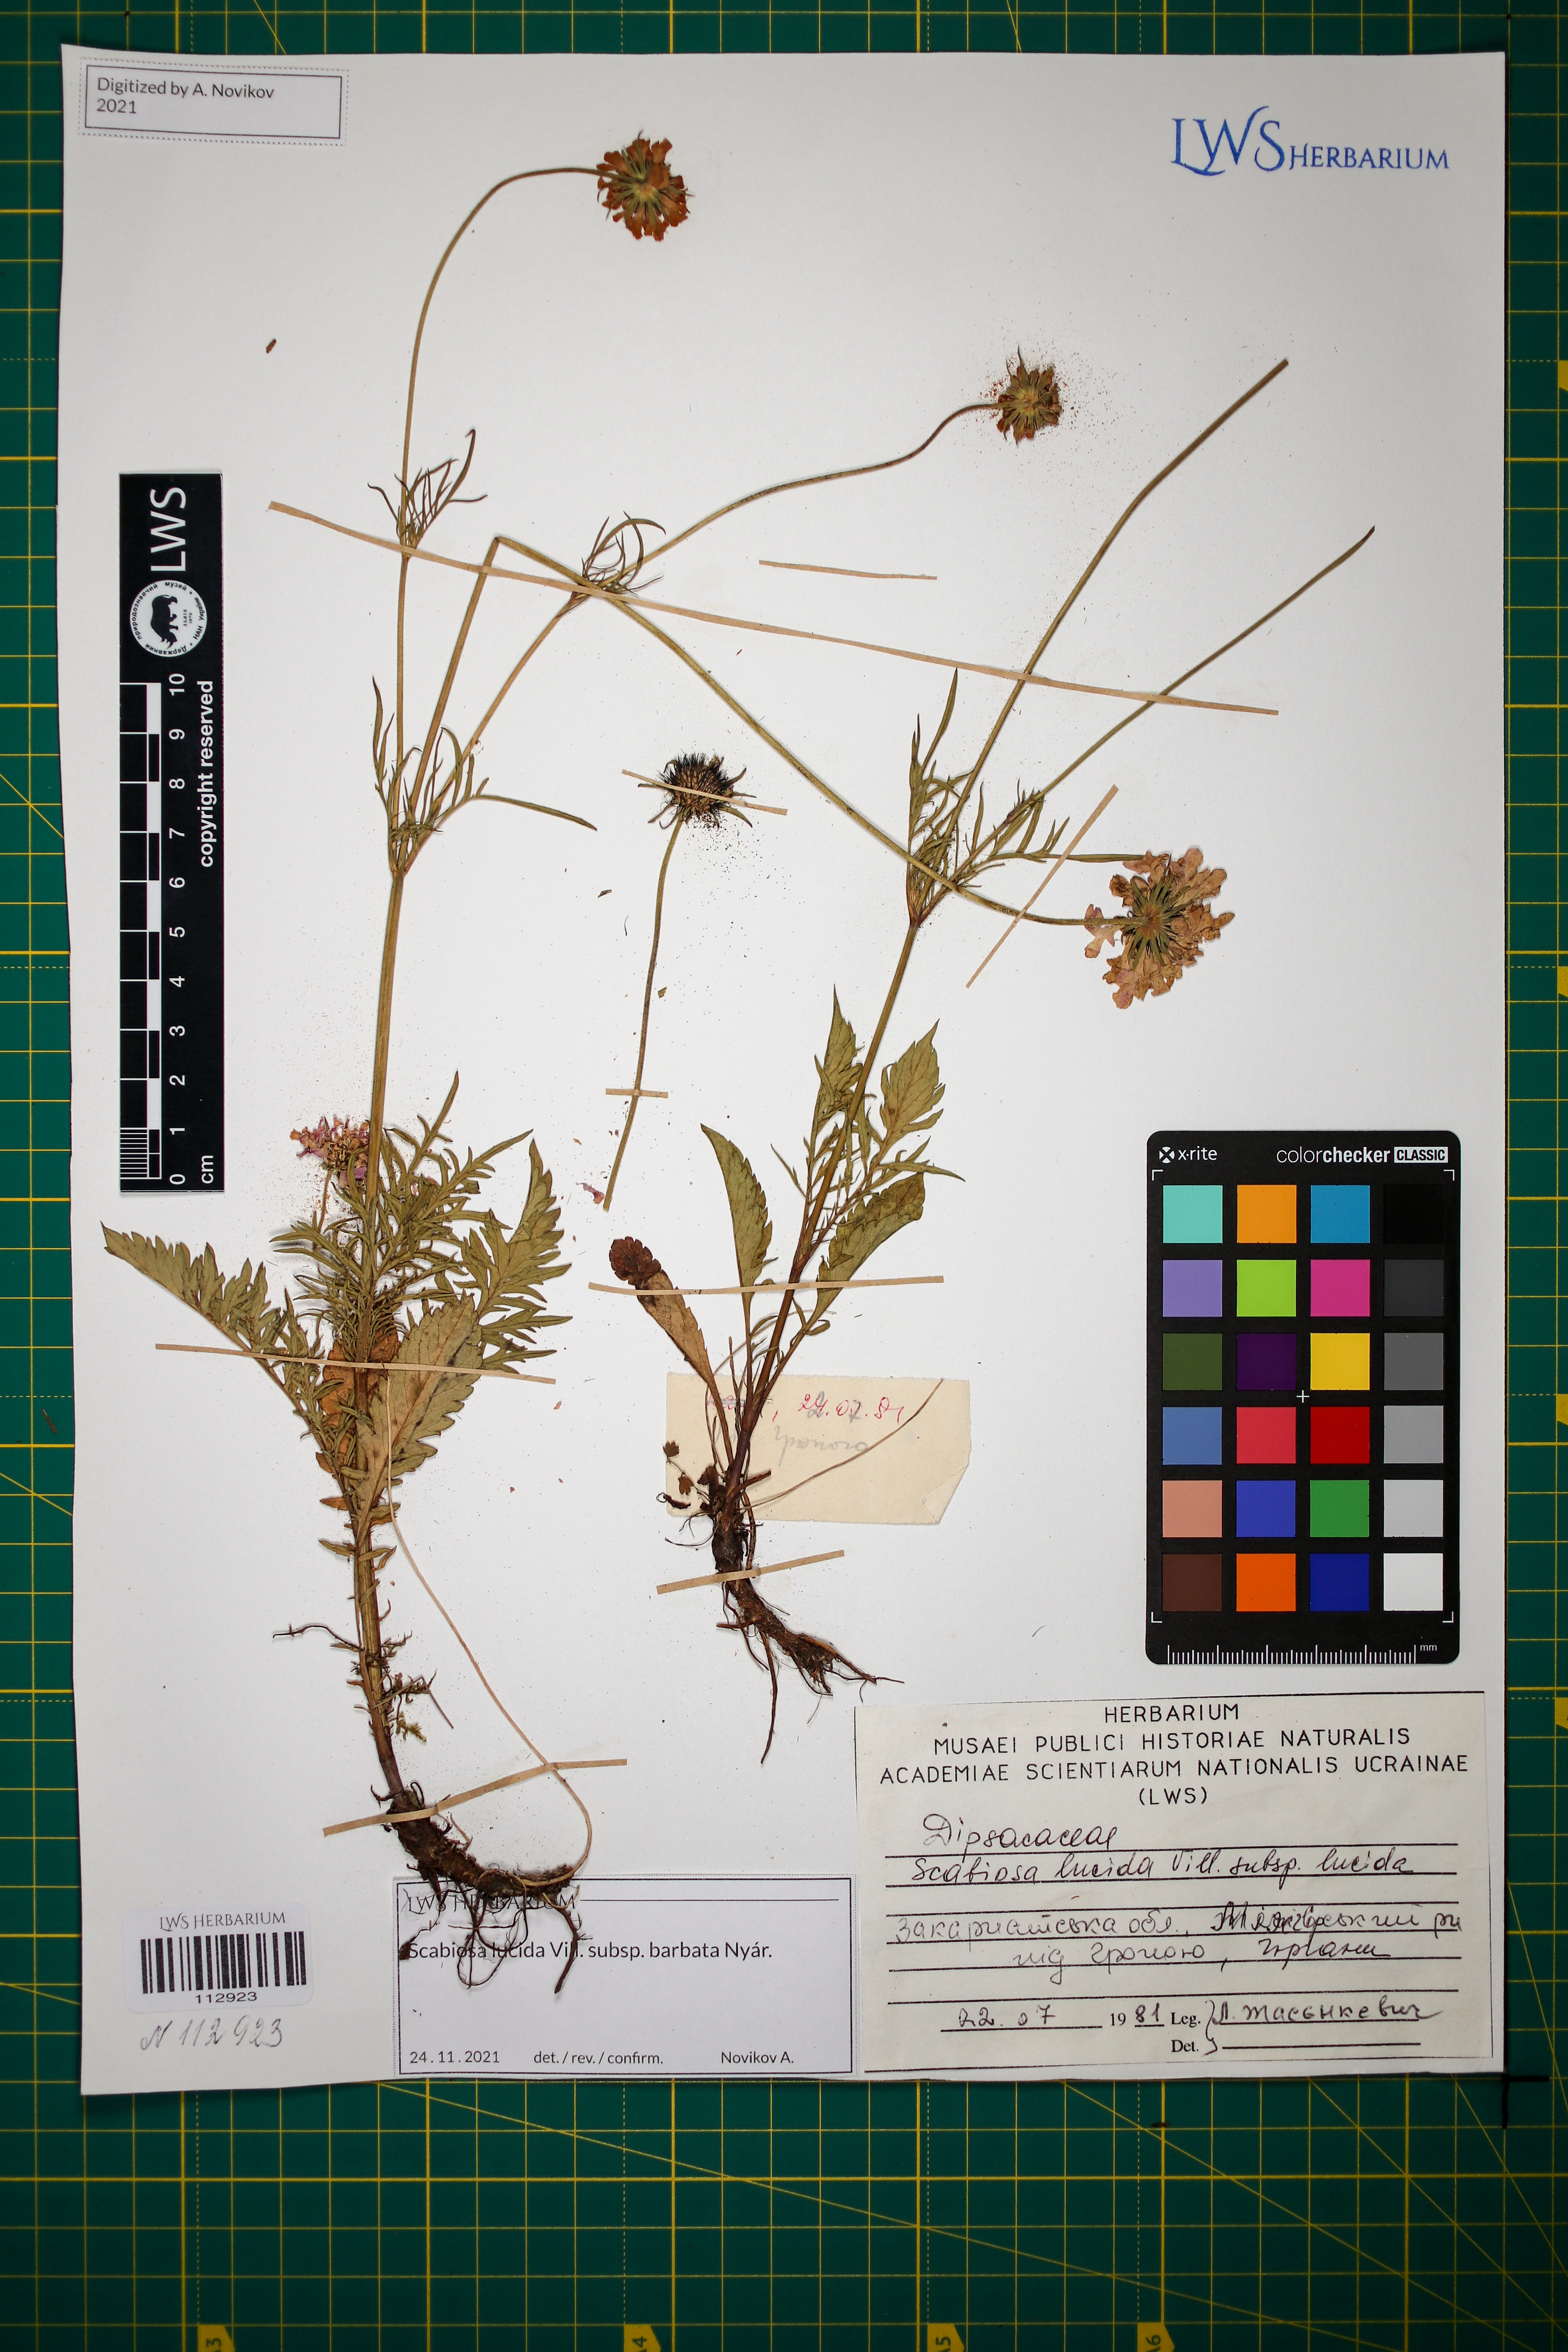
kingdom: Plantae
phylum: Tracheophyta
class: Magnoliopsida
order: Dipsacales
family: Caprifoliaceae
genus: Scabiosa
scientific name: Scabiosa lucida
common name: Shining scabious
